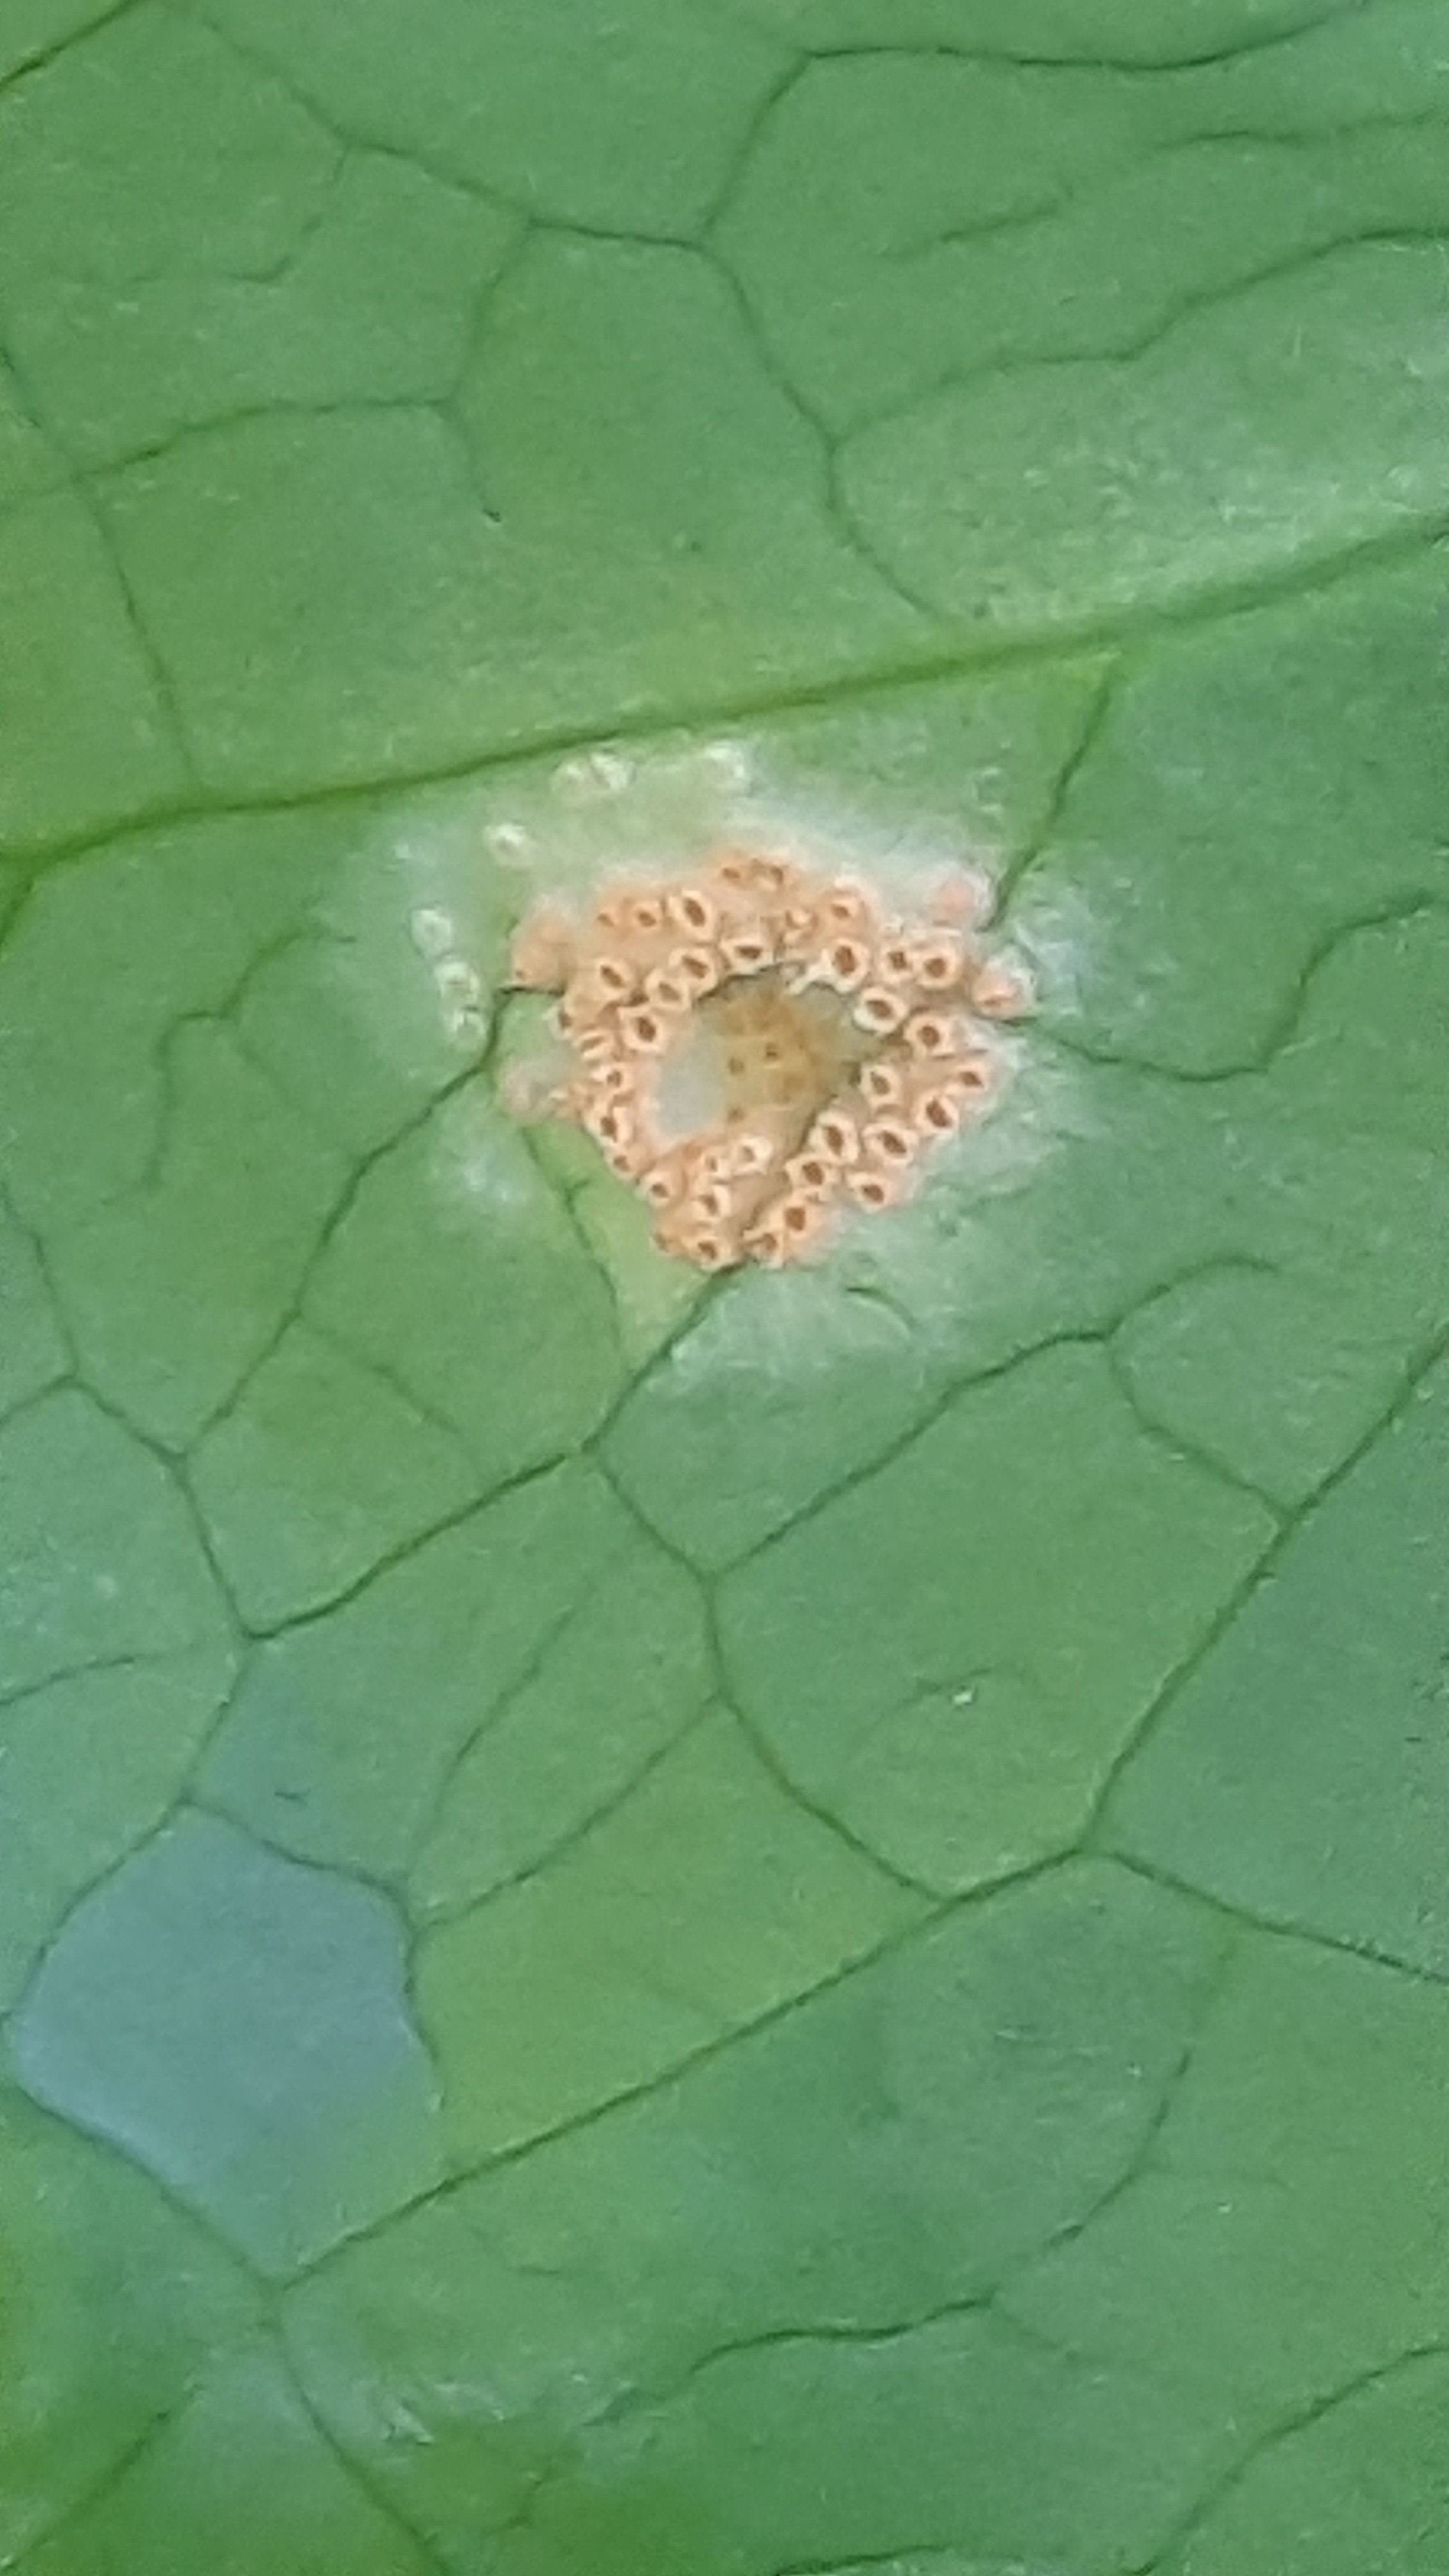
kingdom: Fungi
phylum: Basidiomycota
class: Pucciniomycetes
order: Pucciniales
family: Pucciniaceae
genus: Puccinia
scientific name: Puccinia sessilis
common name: Arum rust
